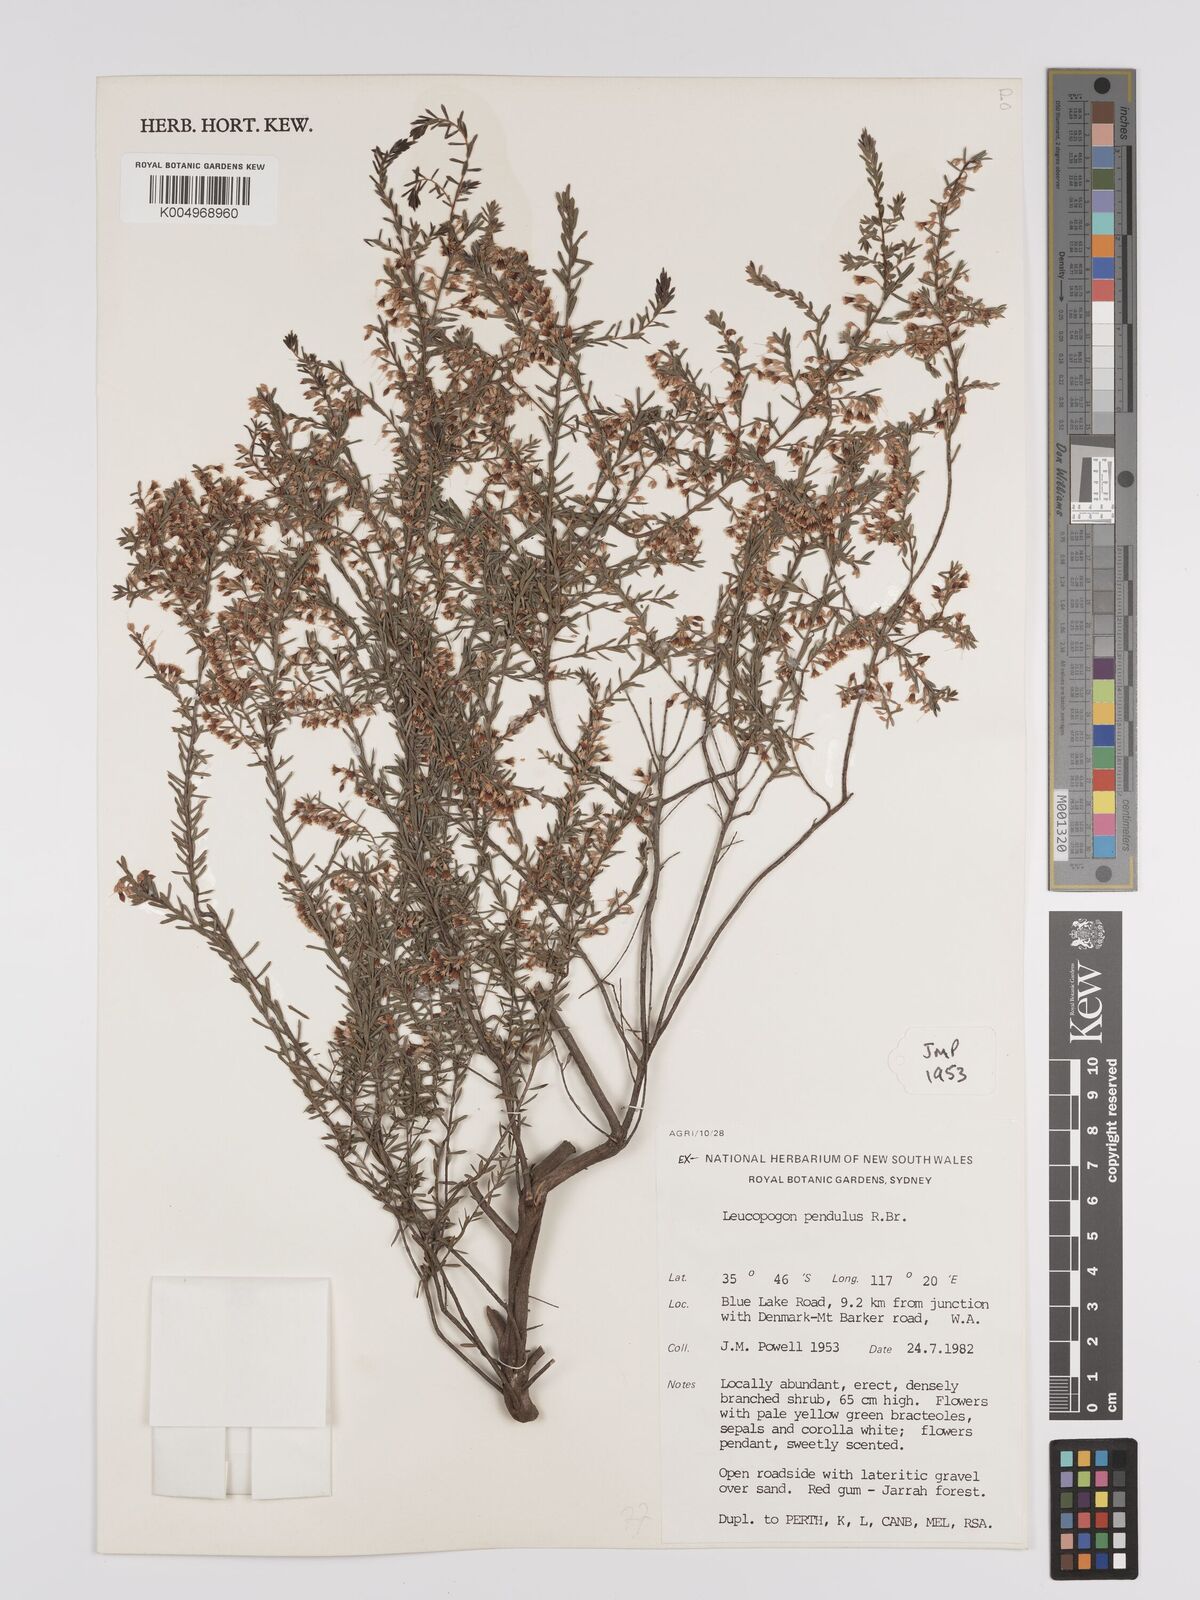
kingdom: Plantae
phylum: Tracheophyta
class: Magnoliopsida
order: Ericales
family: Ericaceae
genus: Styphelia
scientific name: Styphelia pendula
